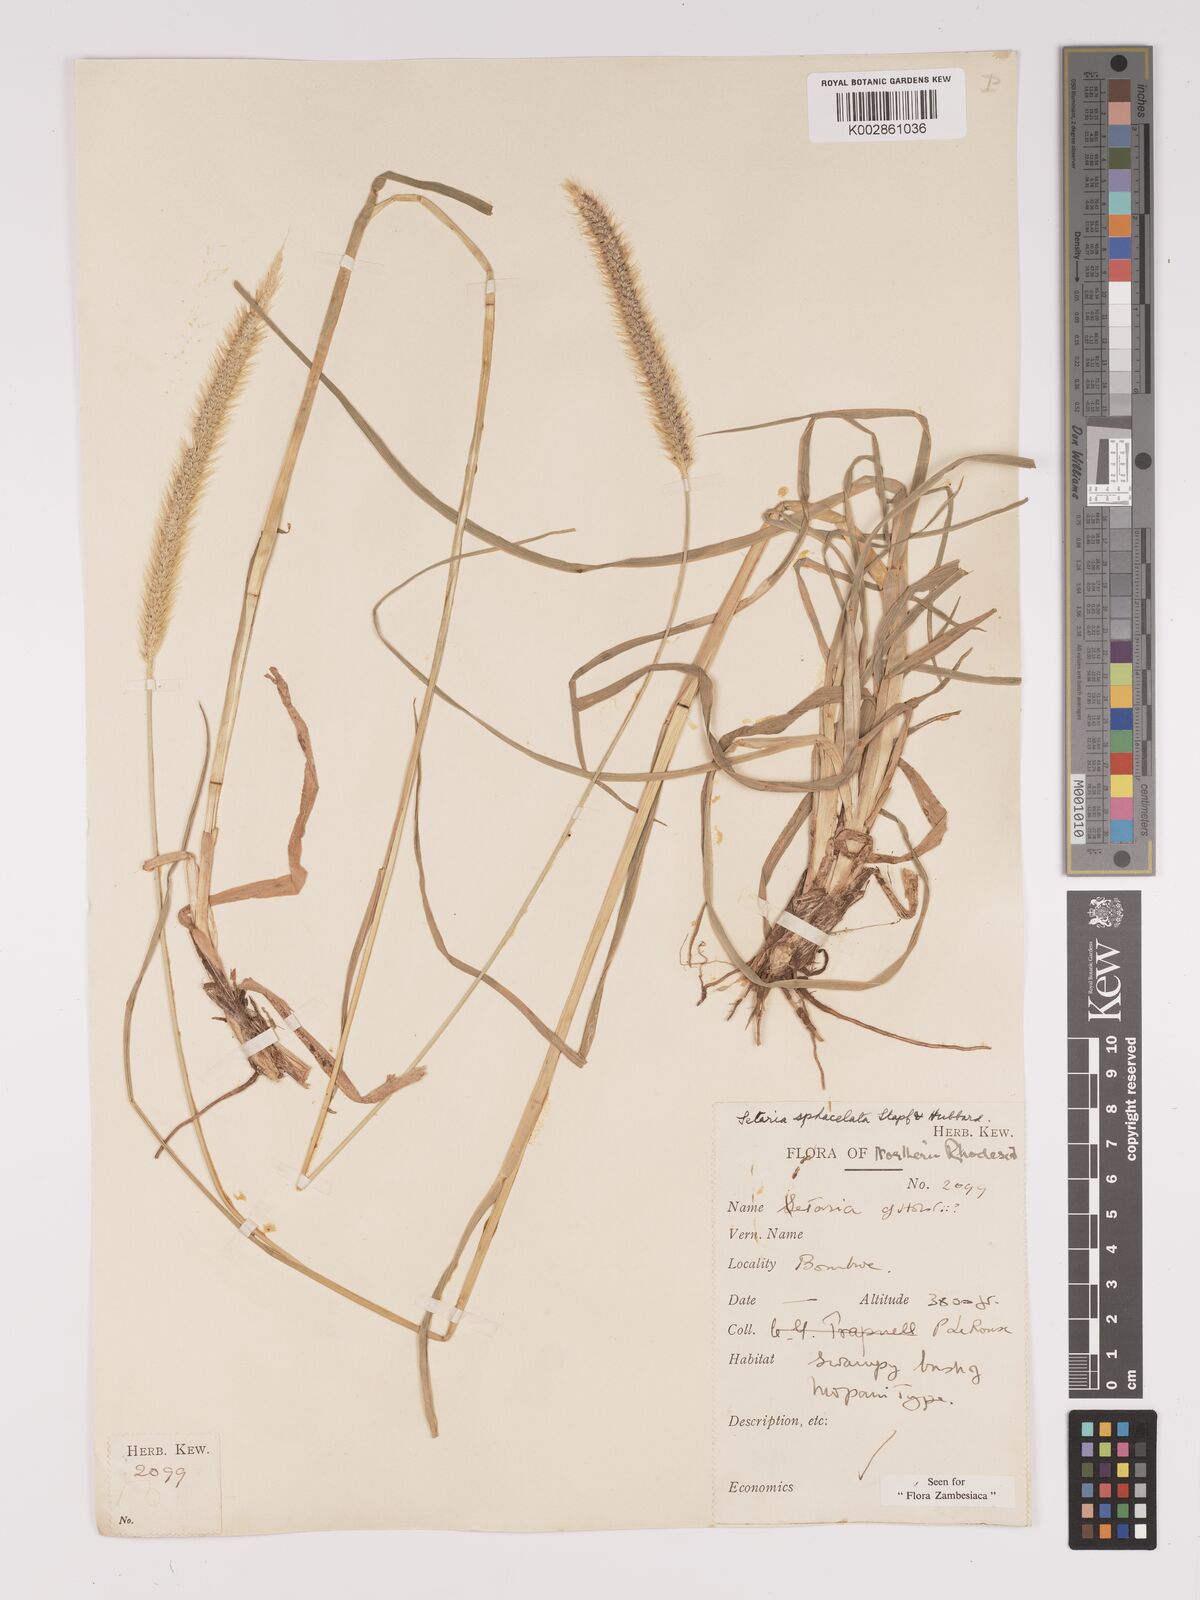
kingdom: Plantae
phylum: Tracheophyta
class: Liliopsida
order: Poales
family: Poaceae
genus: Setaria
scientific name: Setaria sphacelata
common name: African bristlegrass
